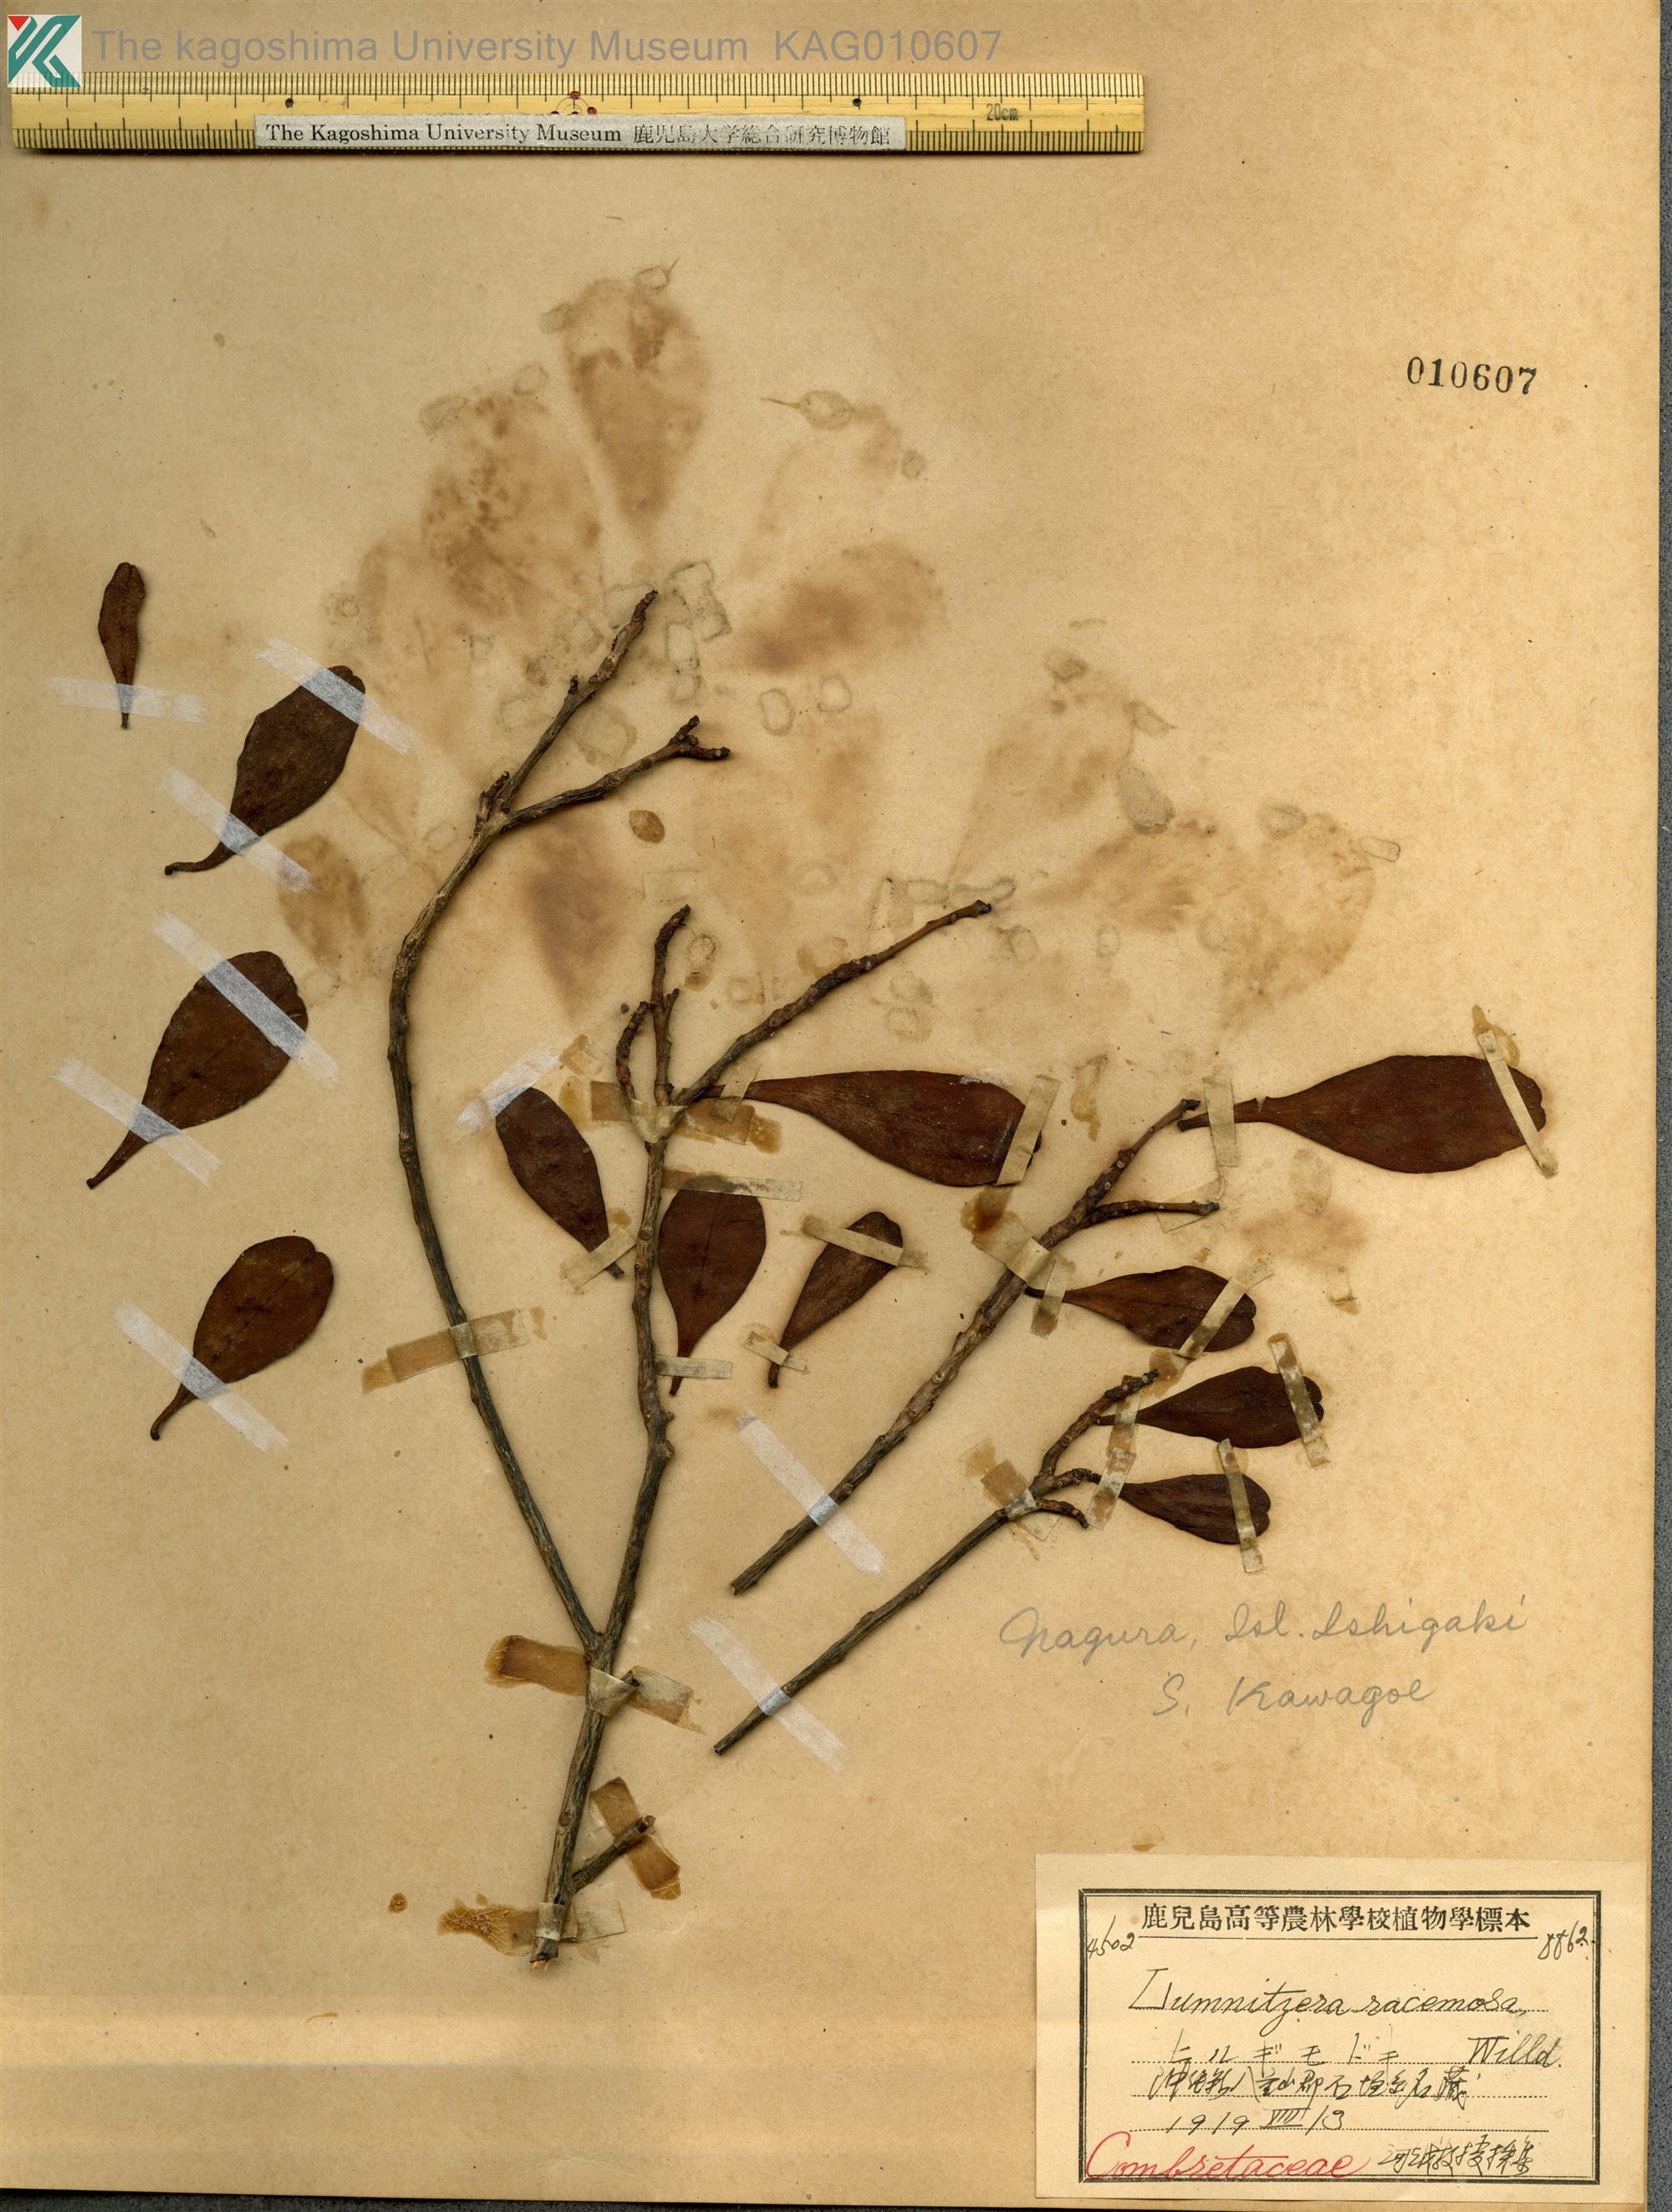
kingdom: Plantae
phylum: Tracheophyta
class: Magnoliopsida
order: Myrtales
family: Combretaceae
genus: Lumnitzera
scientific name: Lumnitzera racemosa
